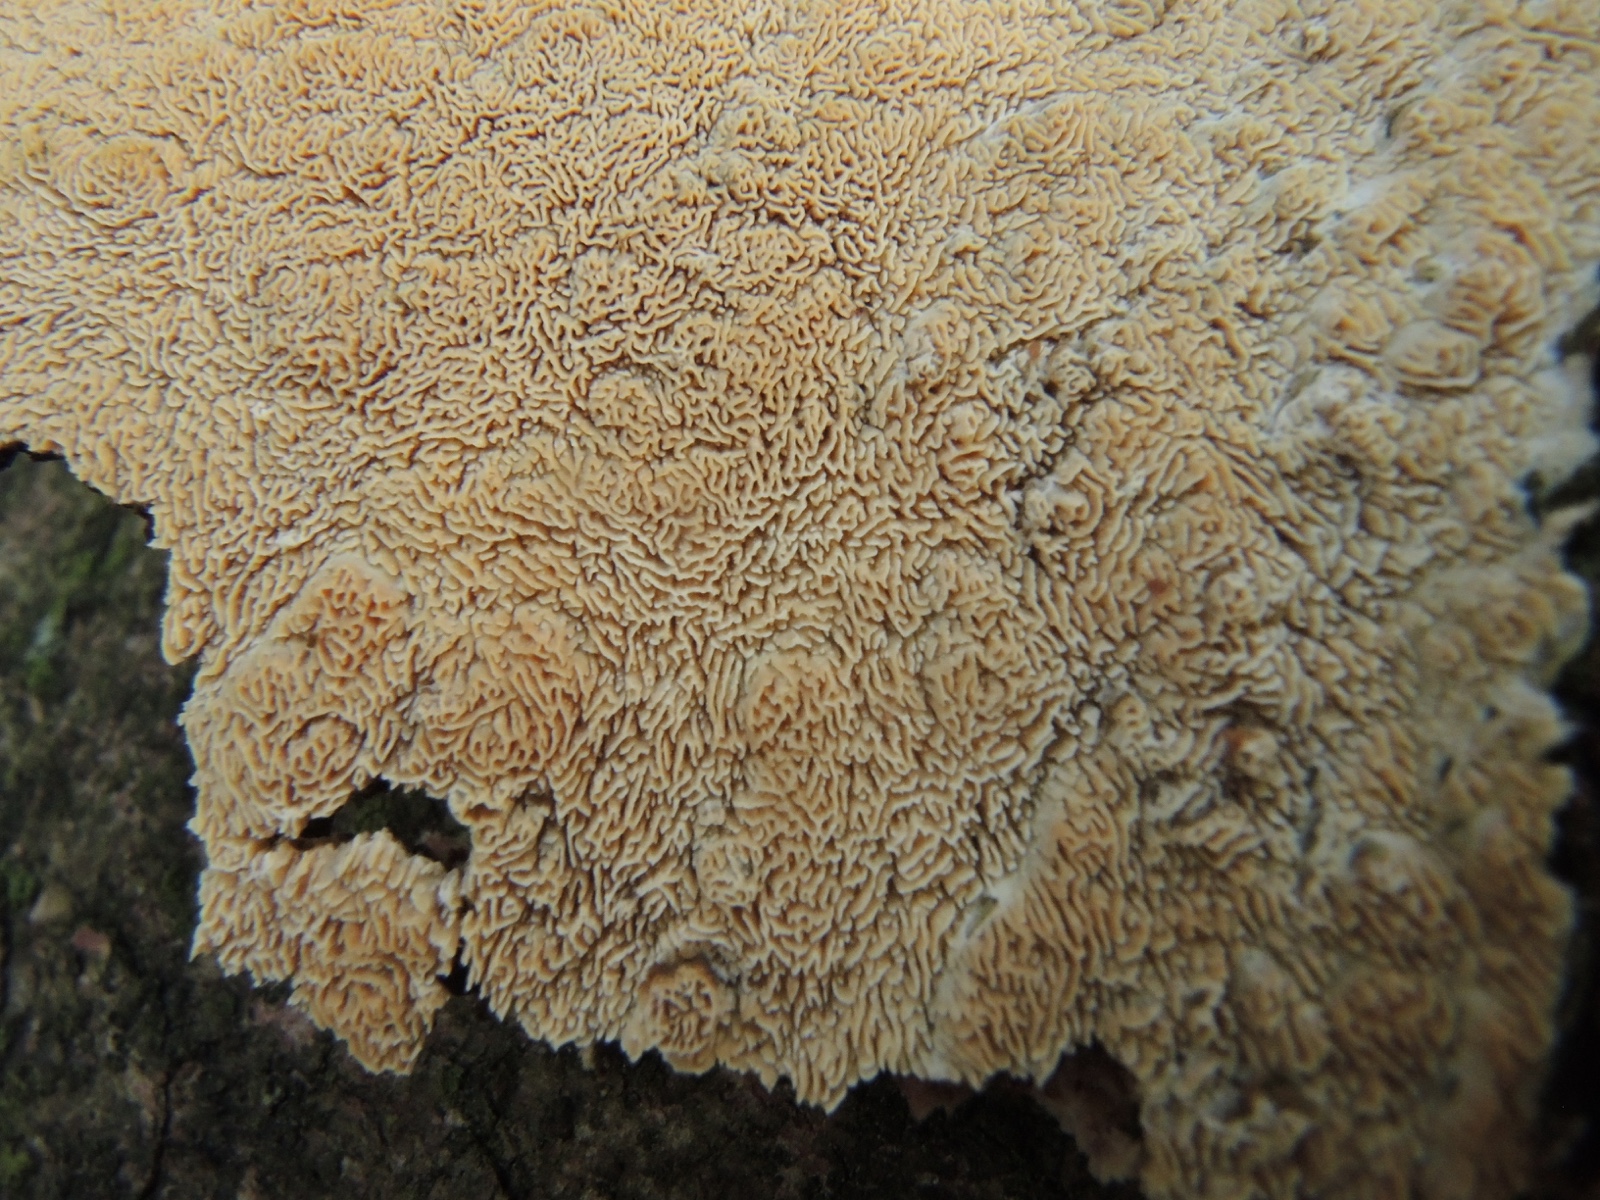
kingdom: Fungi
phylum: Basidiomycota
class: Agaricomycetes
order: Hymenochaetales
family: Schizoporaceae
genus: Xylodon
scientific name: Xylodon subtropicus
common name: labyrint-tandsvamp
